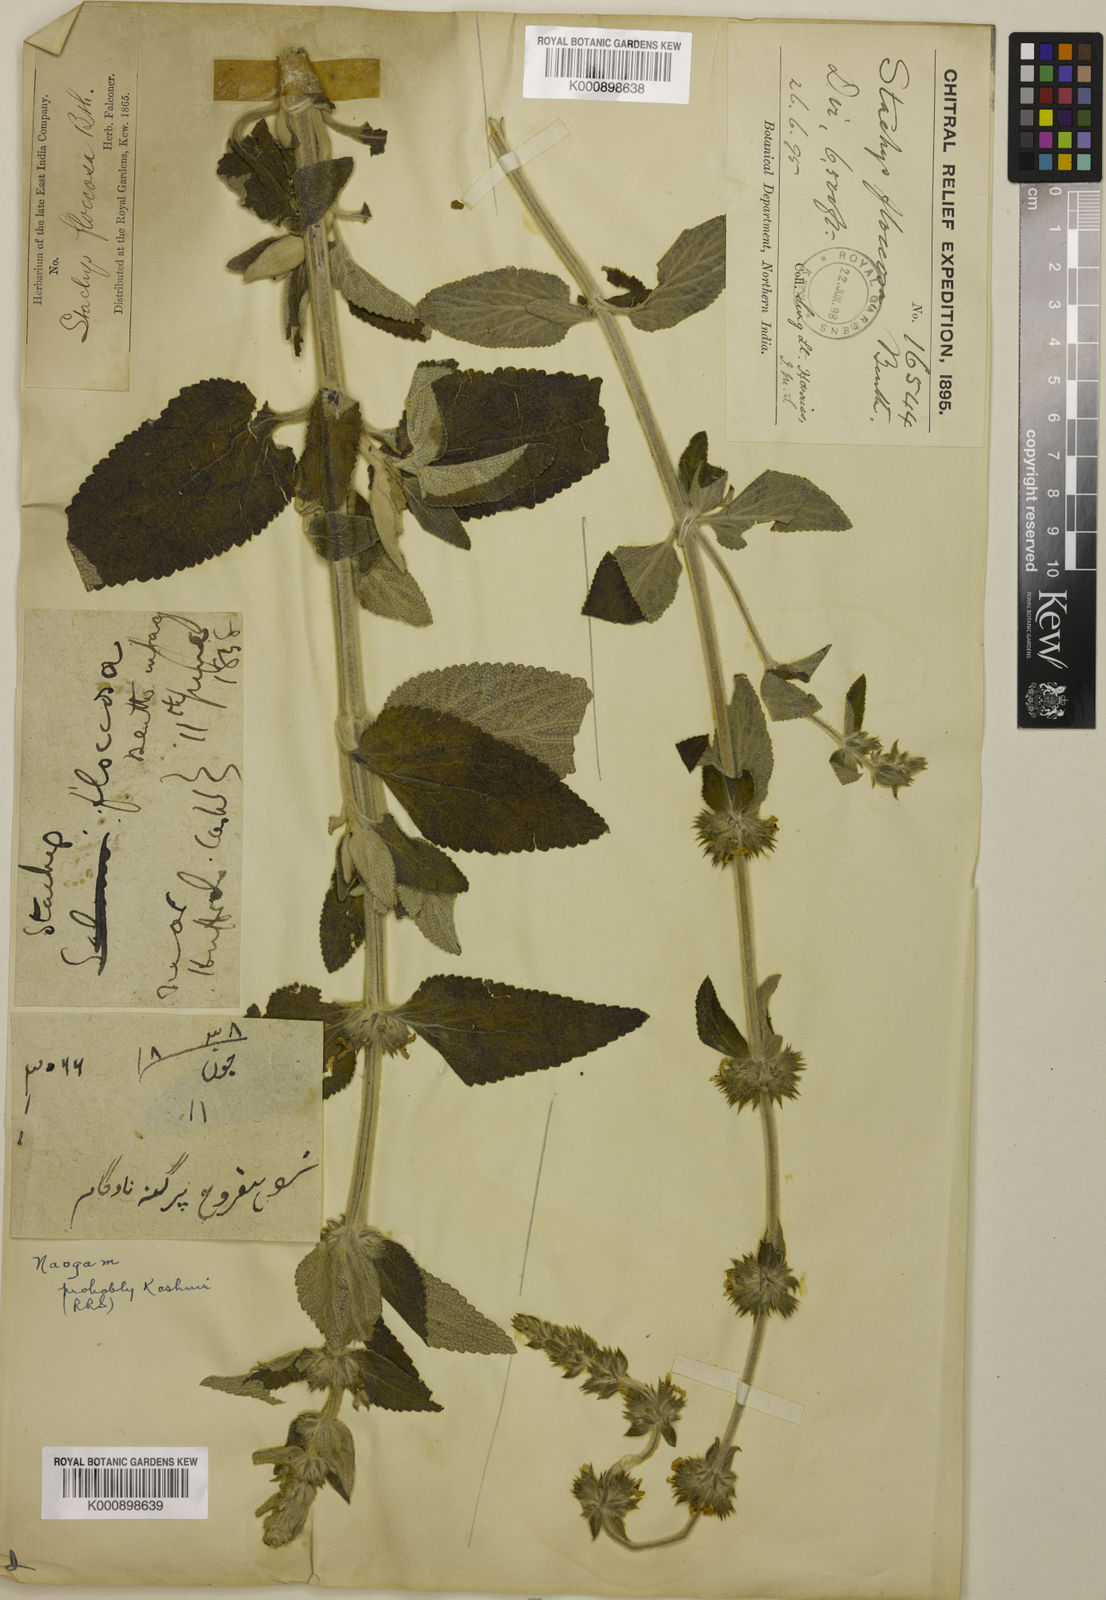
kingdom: Plantae
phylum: Tracheophyta
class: Magnoliopsida
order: Lamiales
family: Lamiaceae
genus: Stachys
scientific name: Stachys floccosa
